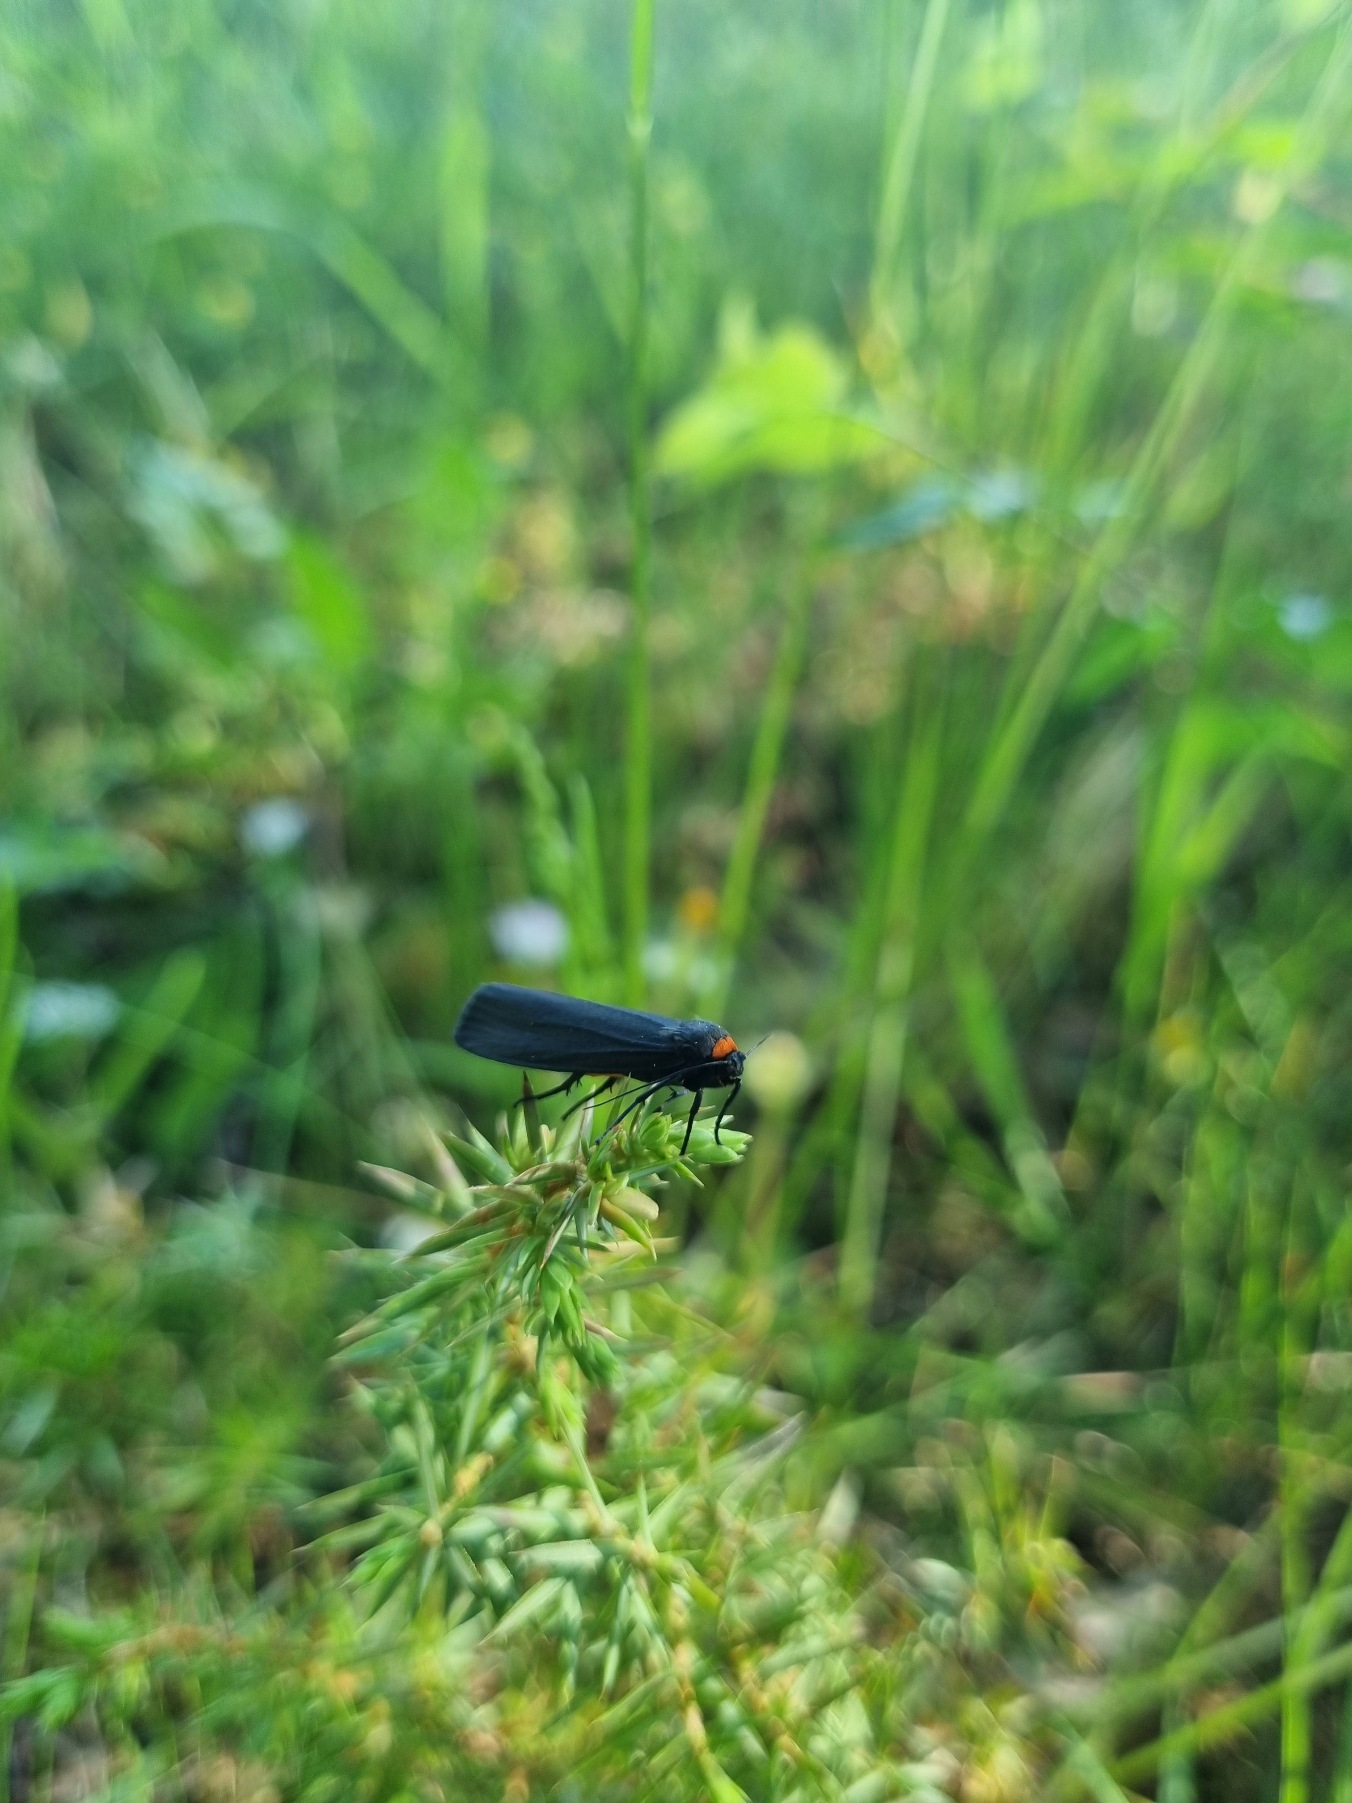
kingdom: Animalia
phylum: Arthropoda
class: Insecta
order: Lepidoptera
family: Erebidae
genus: Atolmis
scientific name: Atolmis rubricollis
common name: Blodnakke
